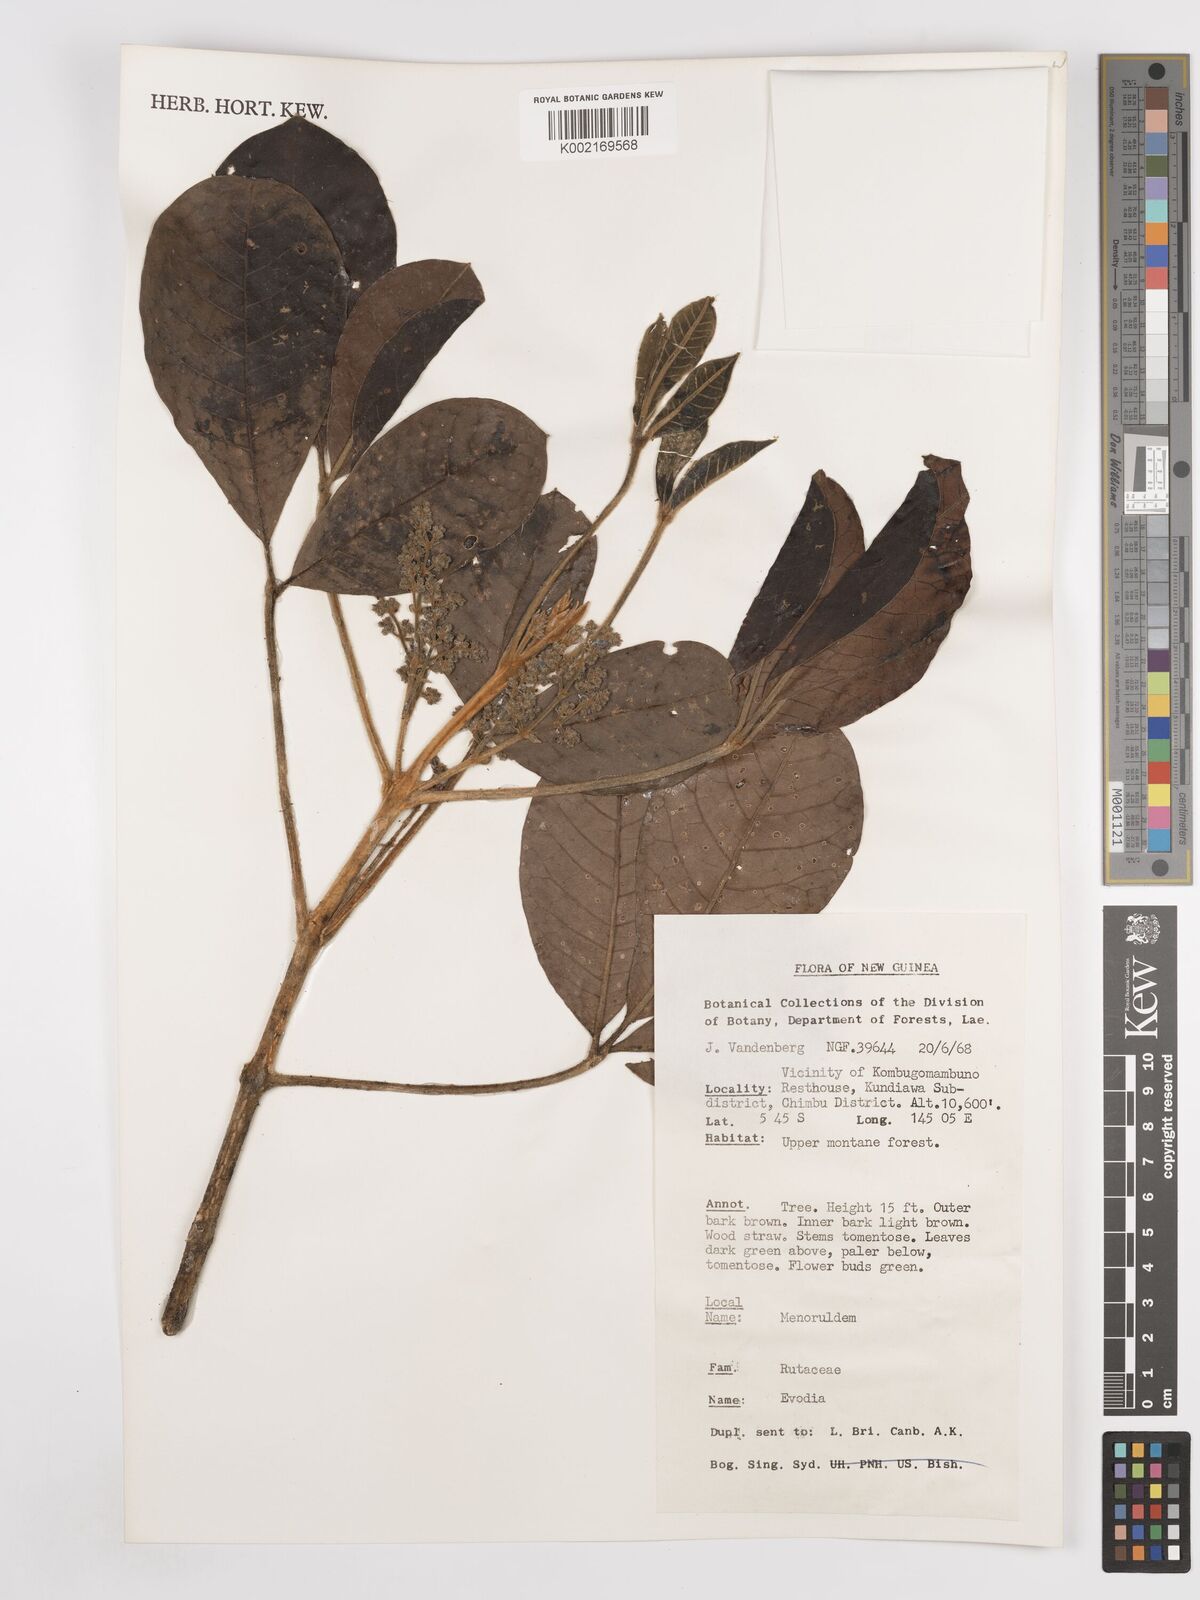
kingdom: Plantae
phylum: Tracheophyta
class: Magnoliopsida
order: Sapindales
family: Rutaceae
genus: Euodia
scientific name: Euodia
